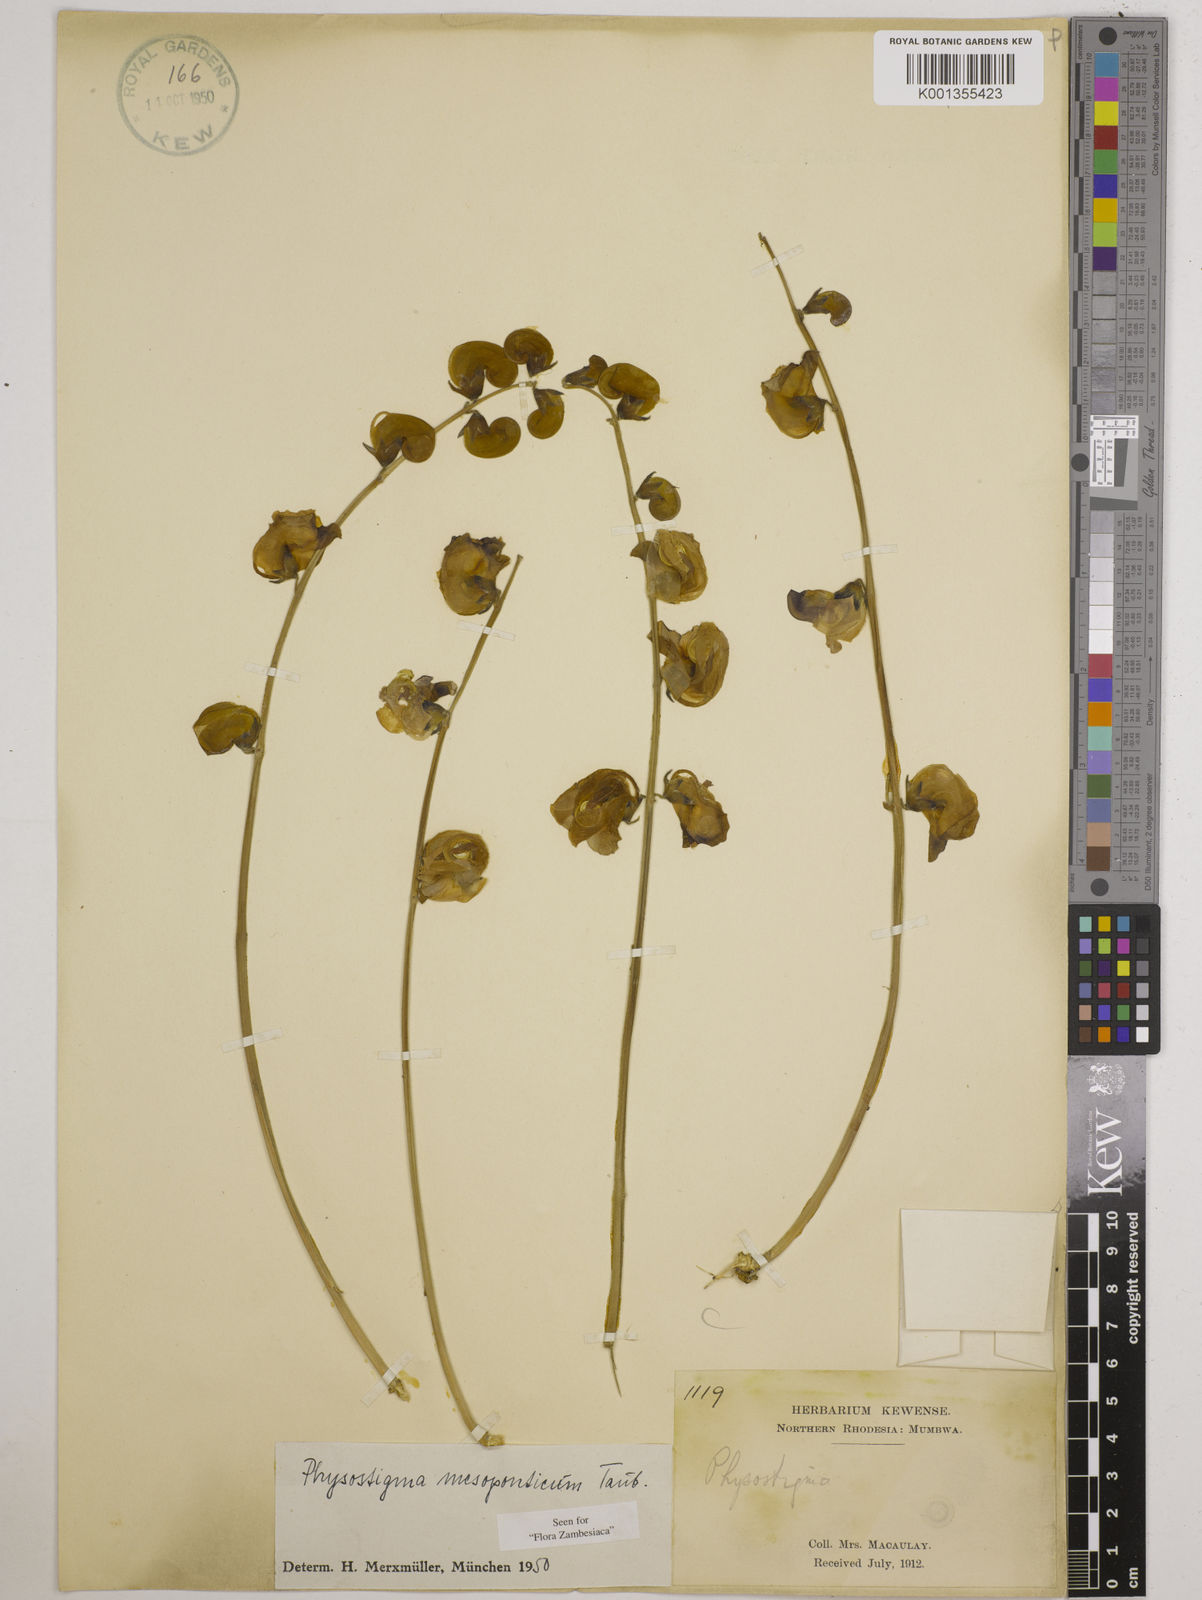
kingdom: Plantae
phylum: Tracheophyta
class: Magnoliopsida
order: Fabales
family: Fabaceae
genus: Physostigma
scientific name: Physostigma mesoponticum
